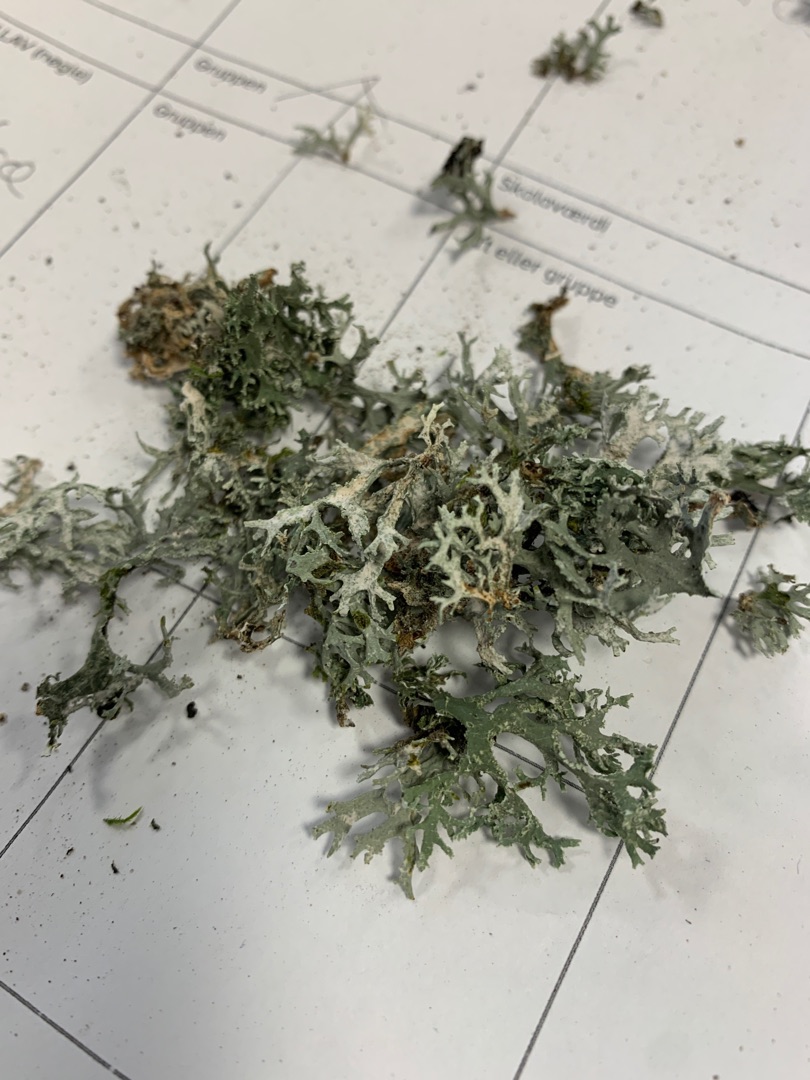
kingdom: Fungi
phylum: Ascomycota
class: Lecanoromycetes
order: Lecanorales
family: Parmeliaceae
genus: Evernia
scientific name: Evernia prunastri
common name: Almindelig slåenlav
